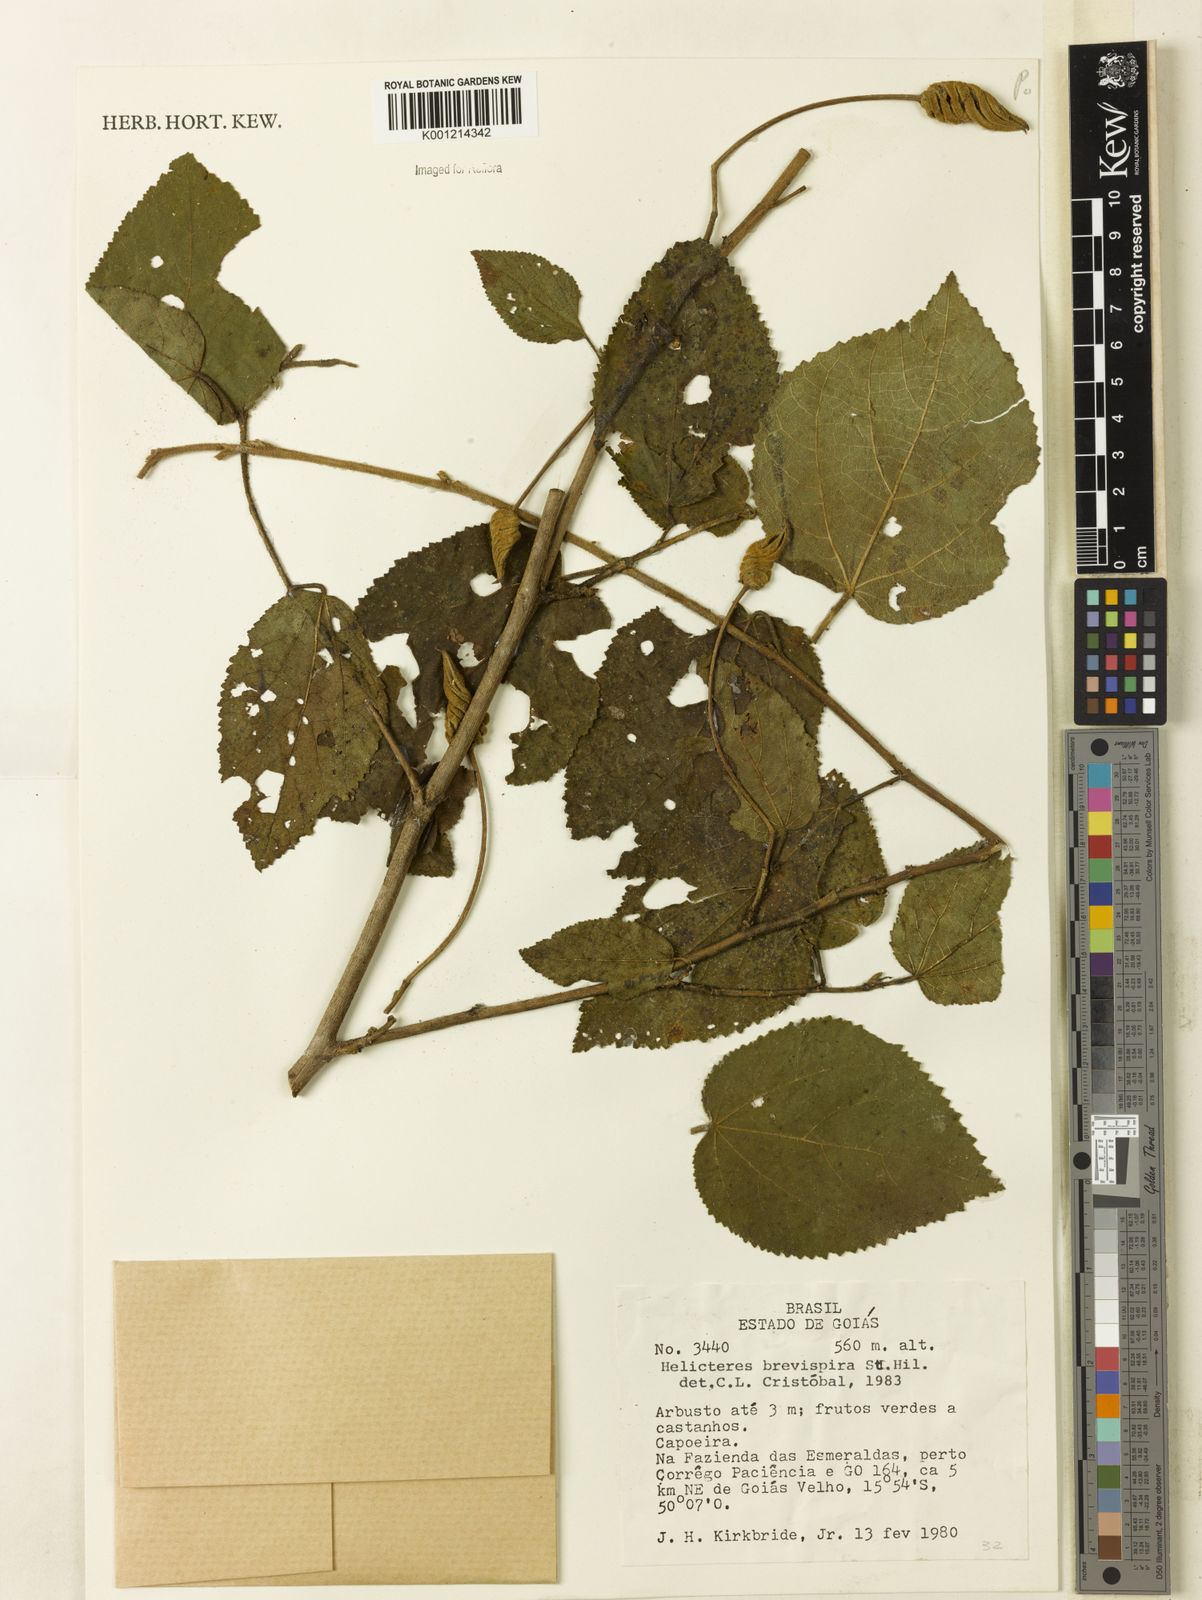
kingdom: Plantae
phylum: Tracheophyta
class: Magnoliopsida
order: Malvales
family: Malvaceae
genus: Helicteres
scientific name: Helicteres
